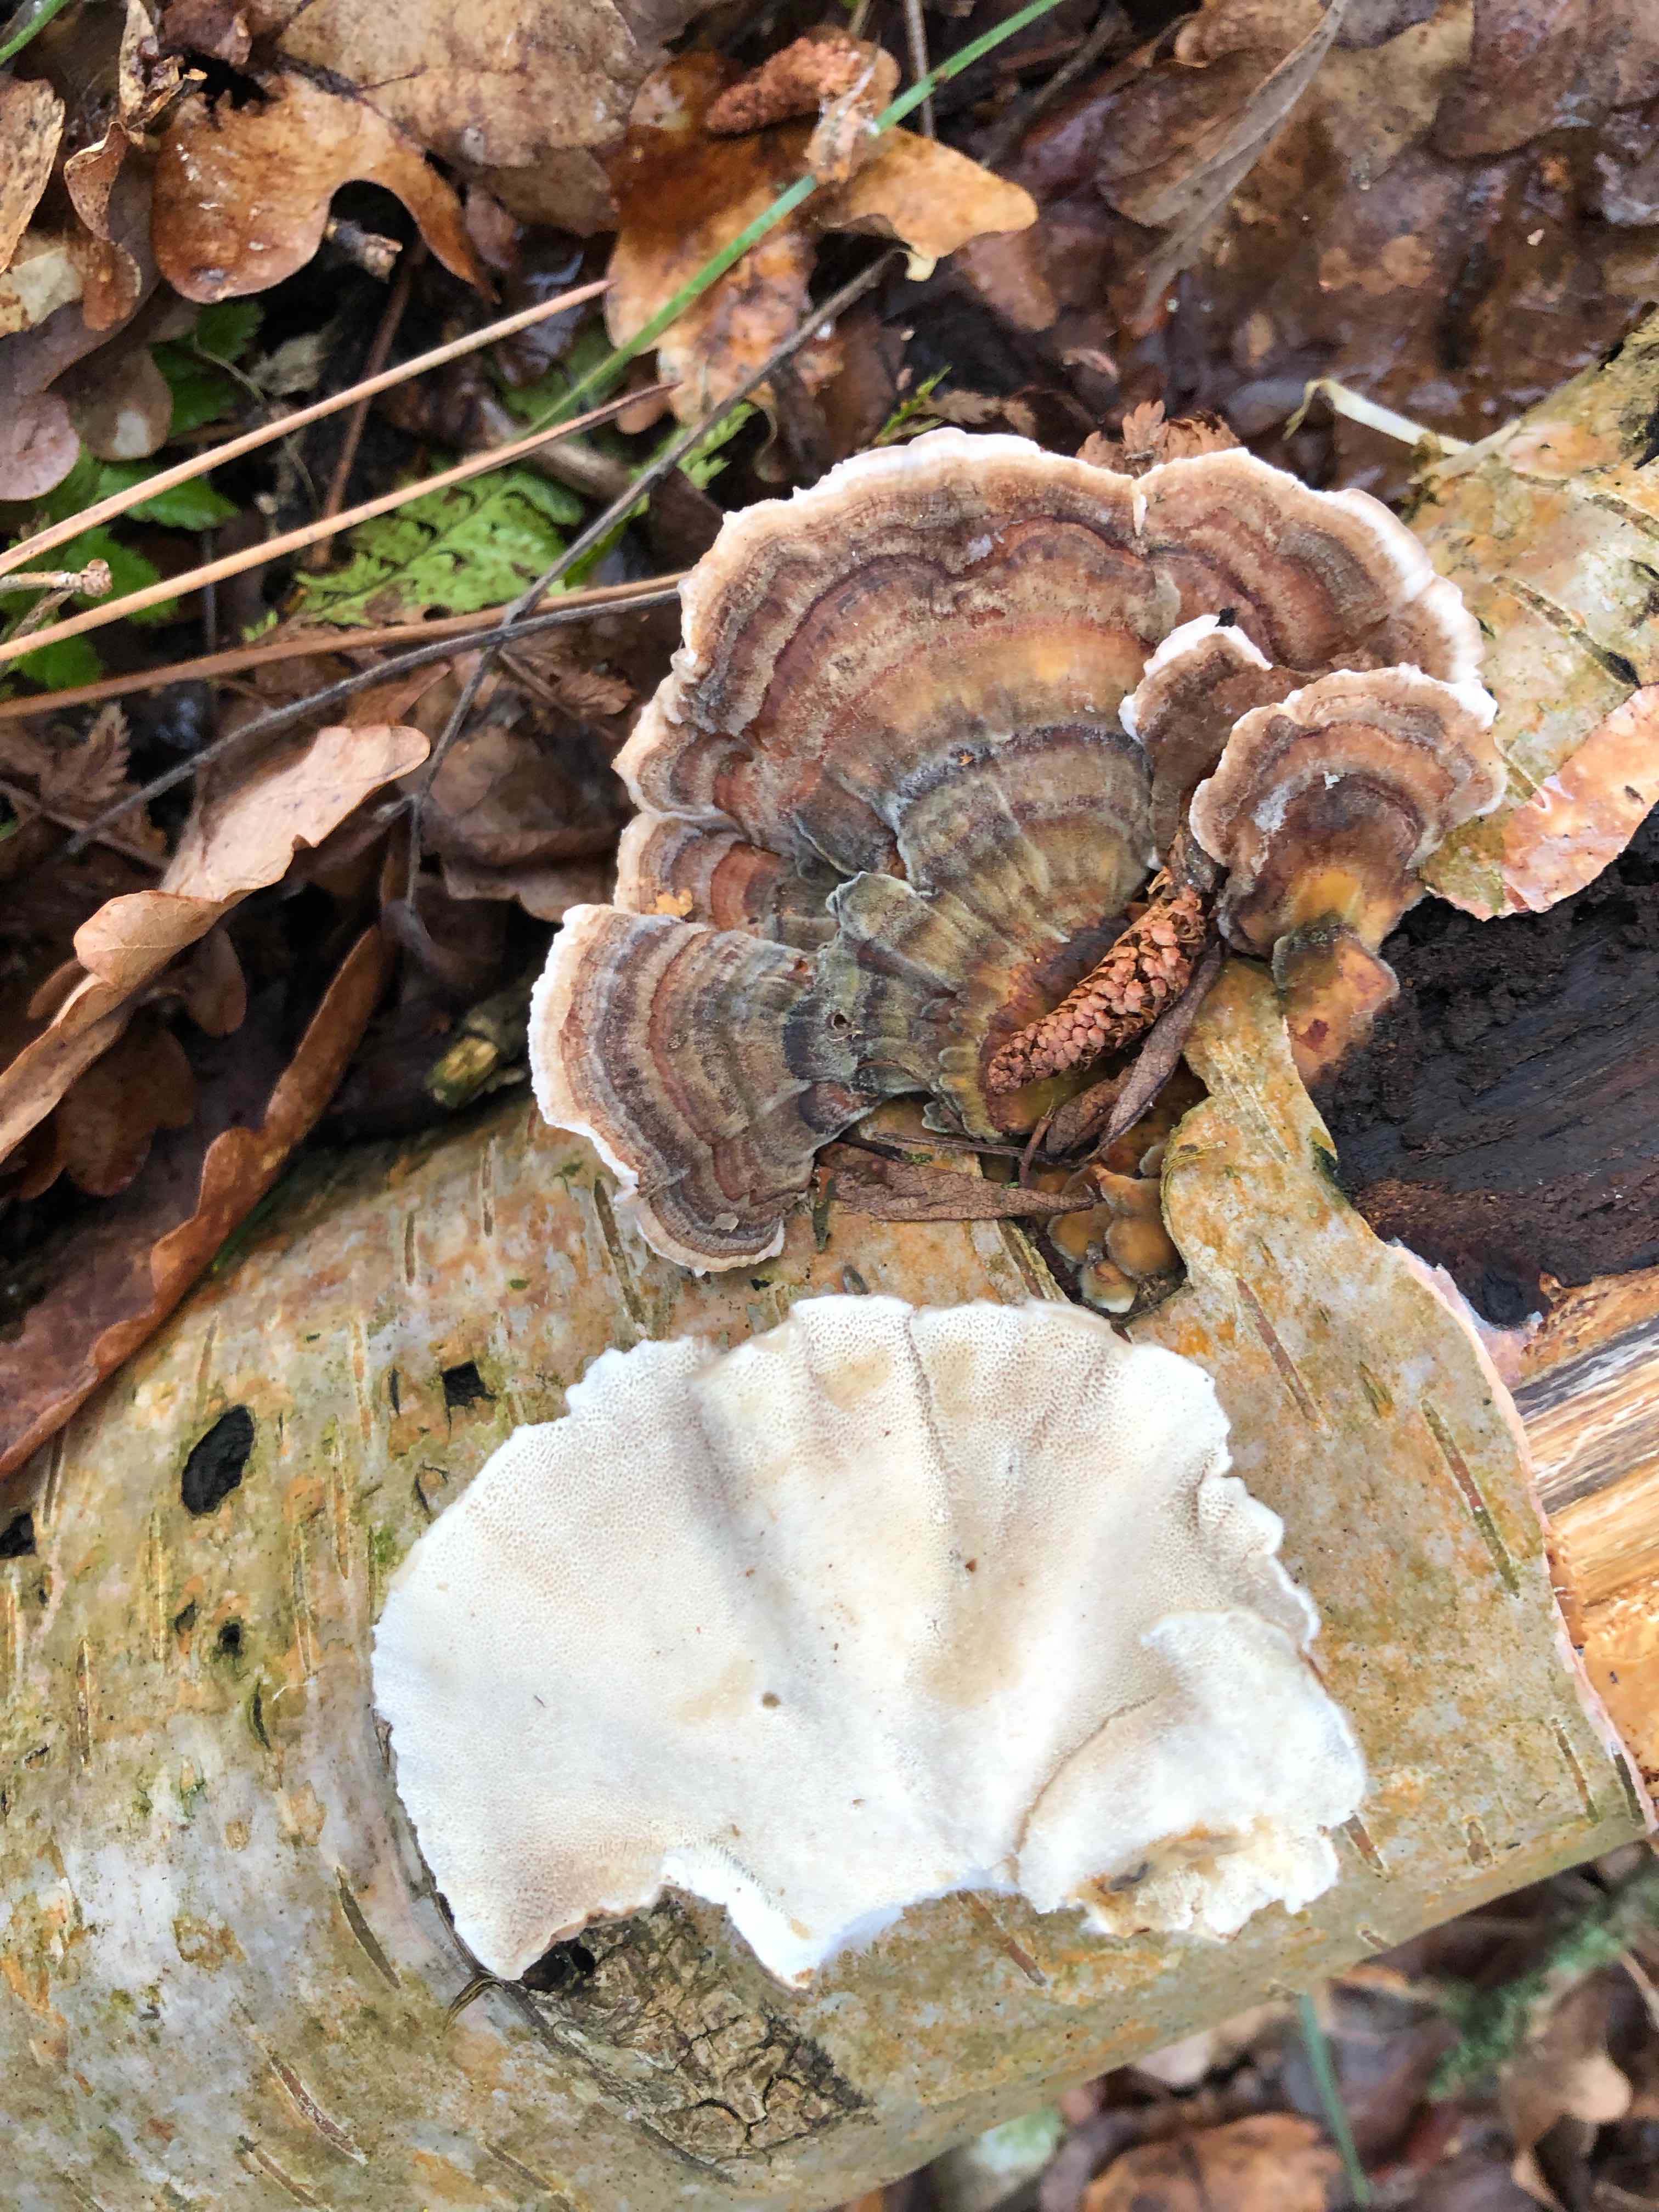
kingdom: Fungi
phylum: Basidiomycota
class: Agaricomycetes
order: Polyporales
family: Polyporaceae
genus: Trametes
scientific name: Trametes versicolor
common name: broget læderporesvamp
